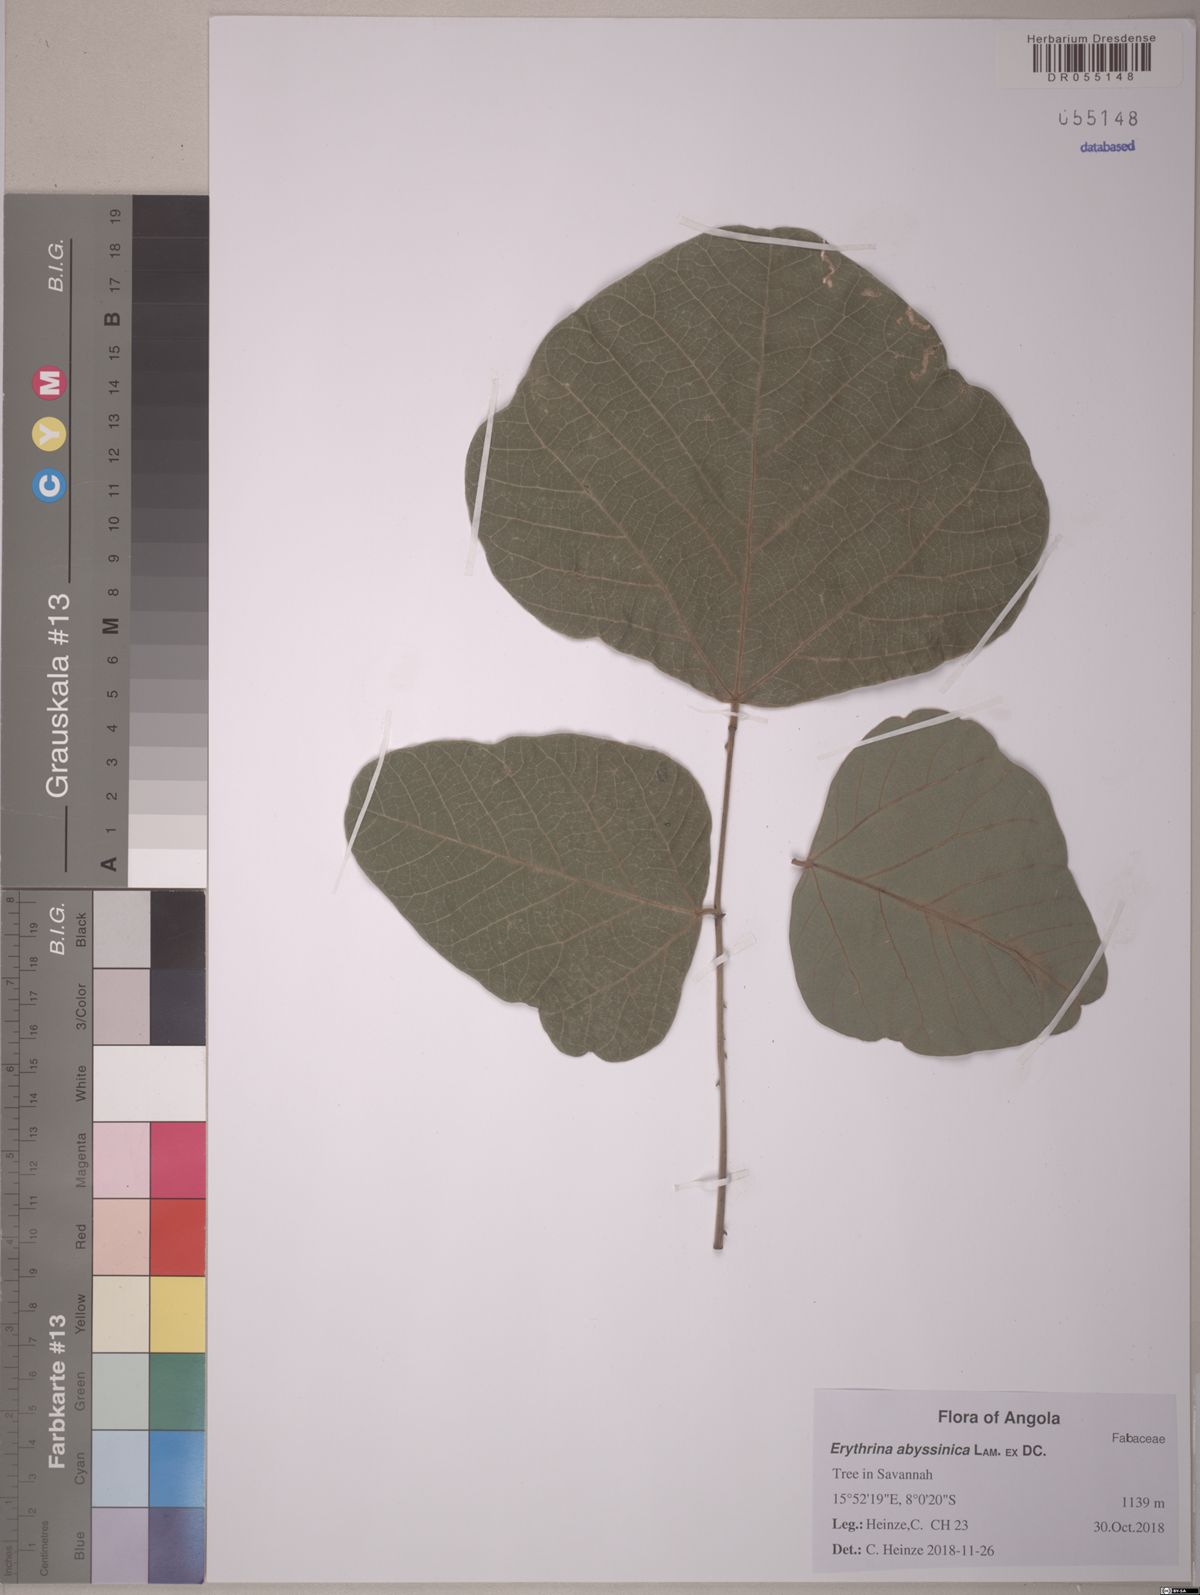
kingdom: Plantae
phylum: Tracheophyta
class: Magnoliopsida
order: Fabales
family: Fabaceae
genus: Erythrina
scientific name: Erythrina abyssinica
